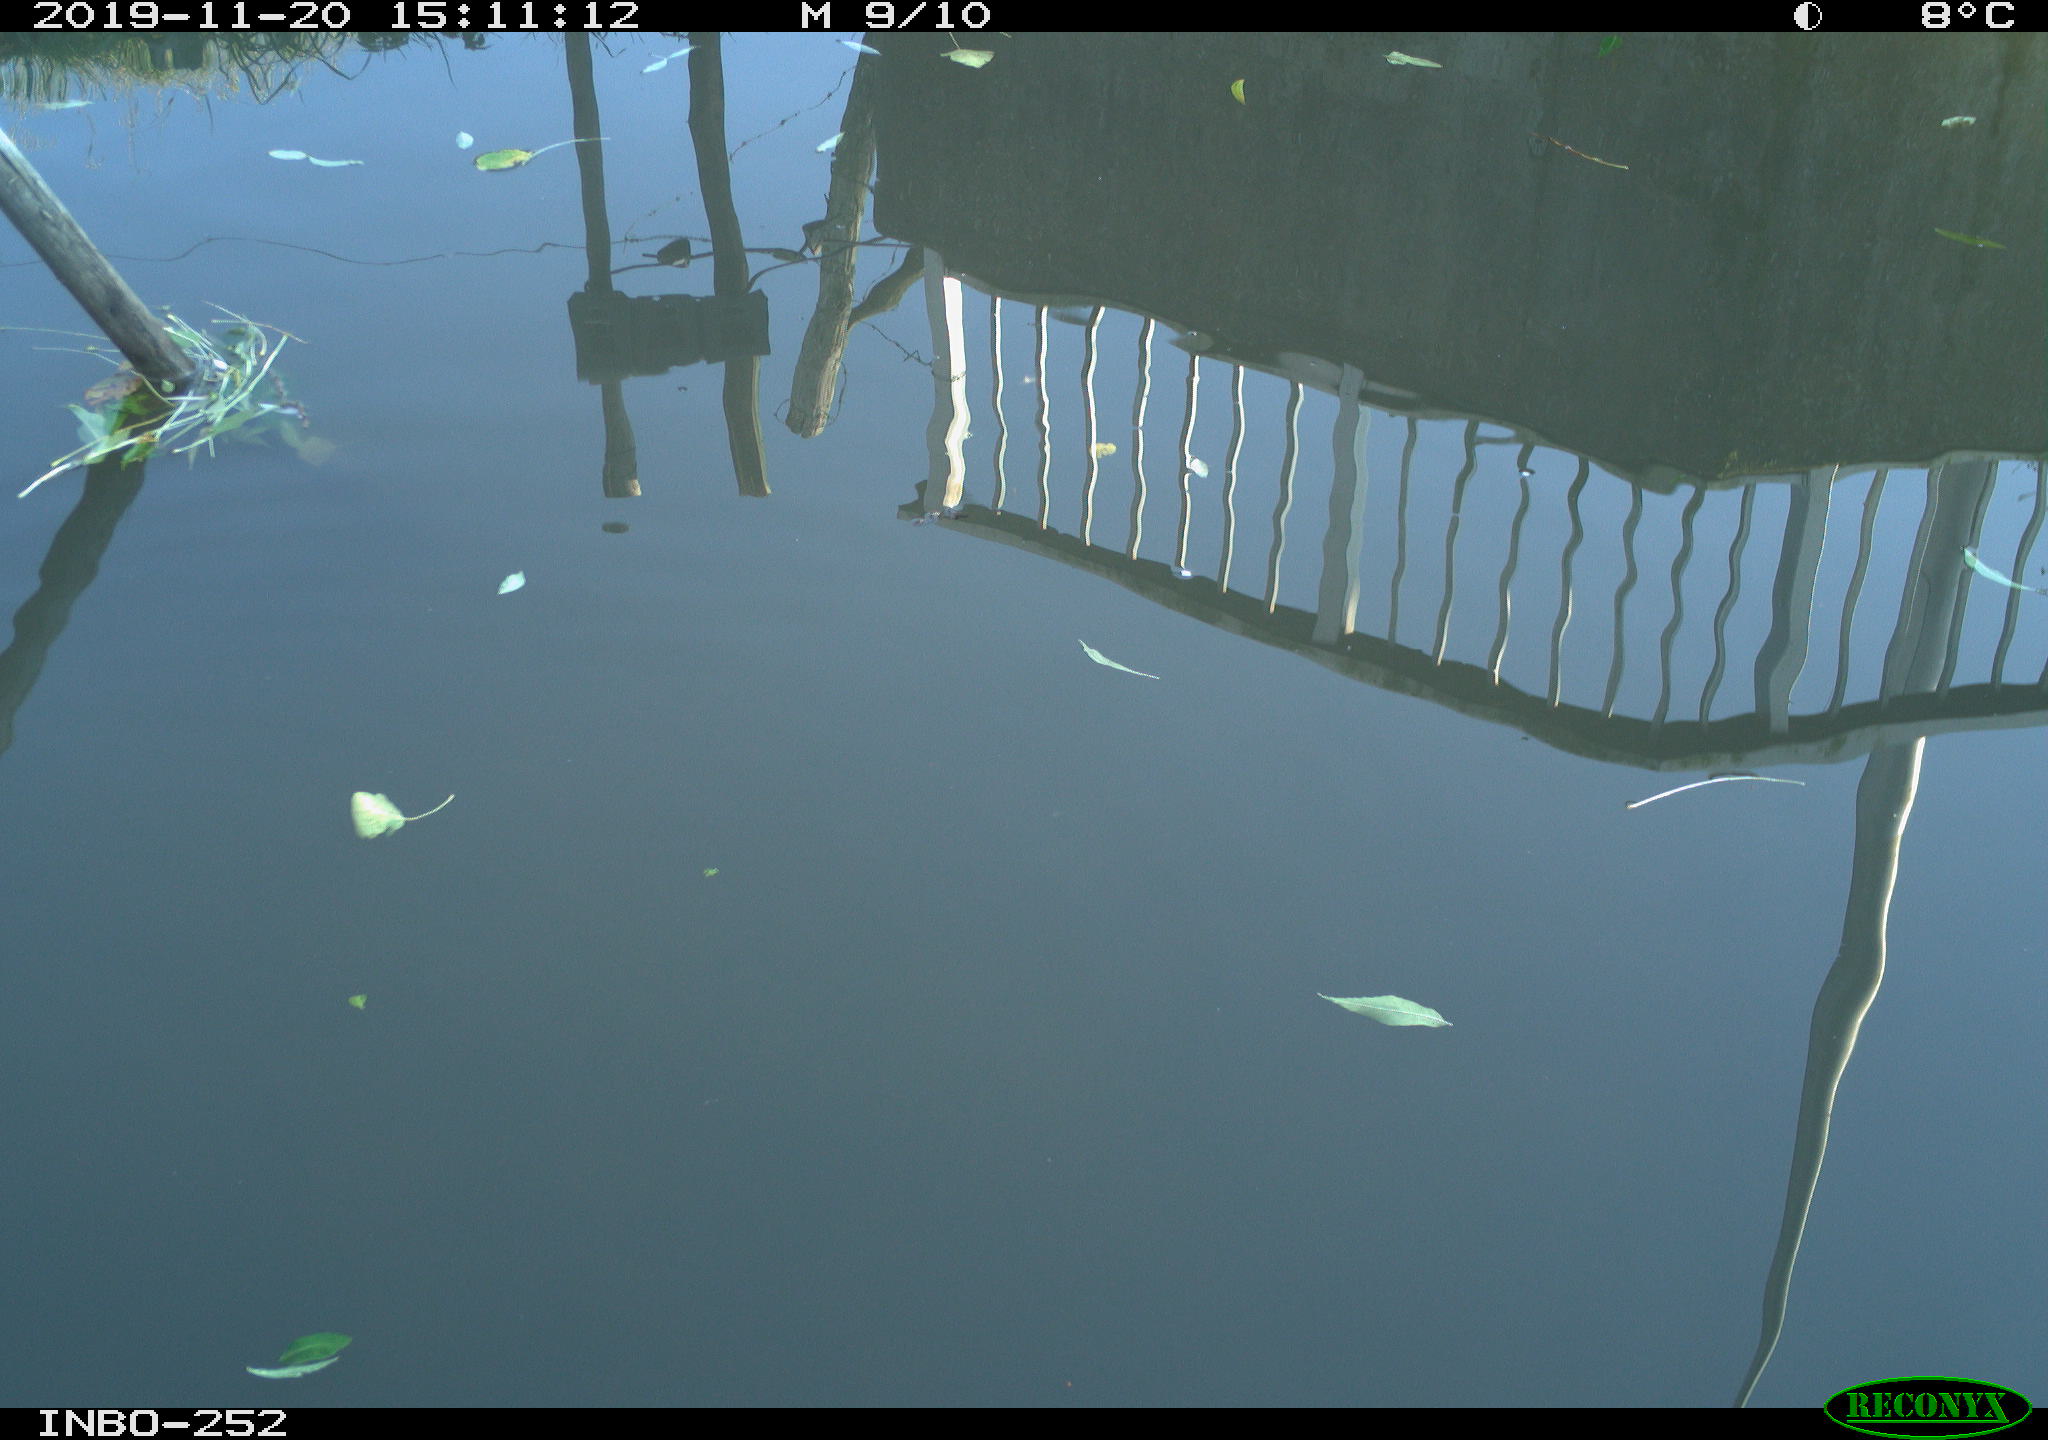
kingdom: Animalia
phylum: Chordata
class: Aves
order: Gruiformes
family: Rallidae
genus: Gallinula
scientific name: Gallinula chloropus
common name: Common moorhen
